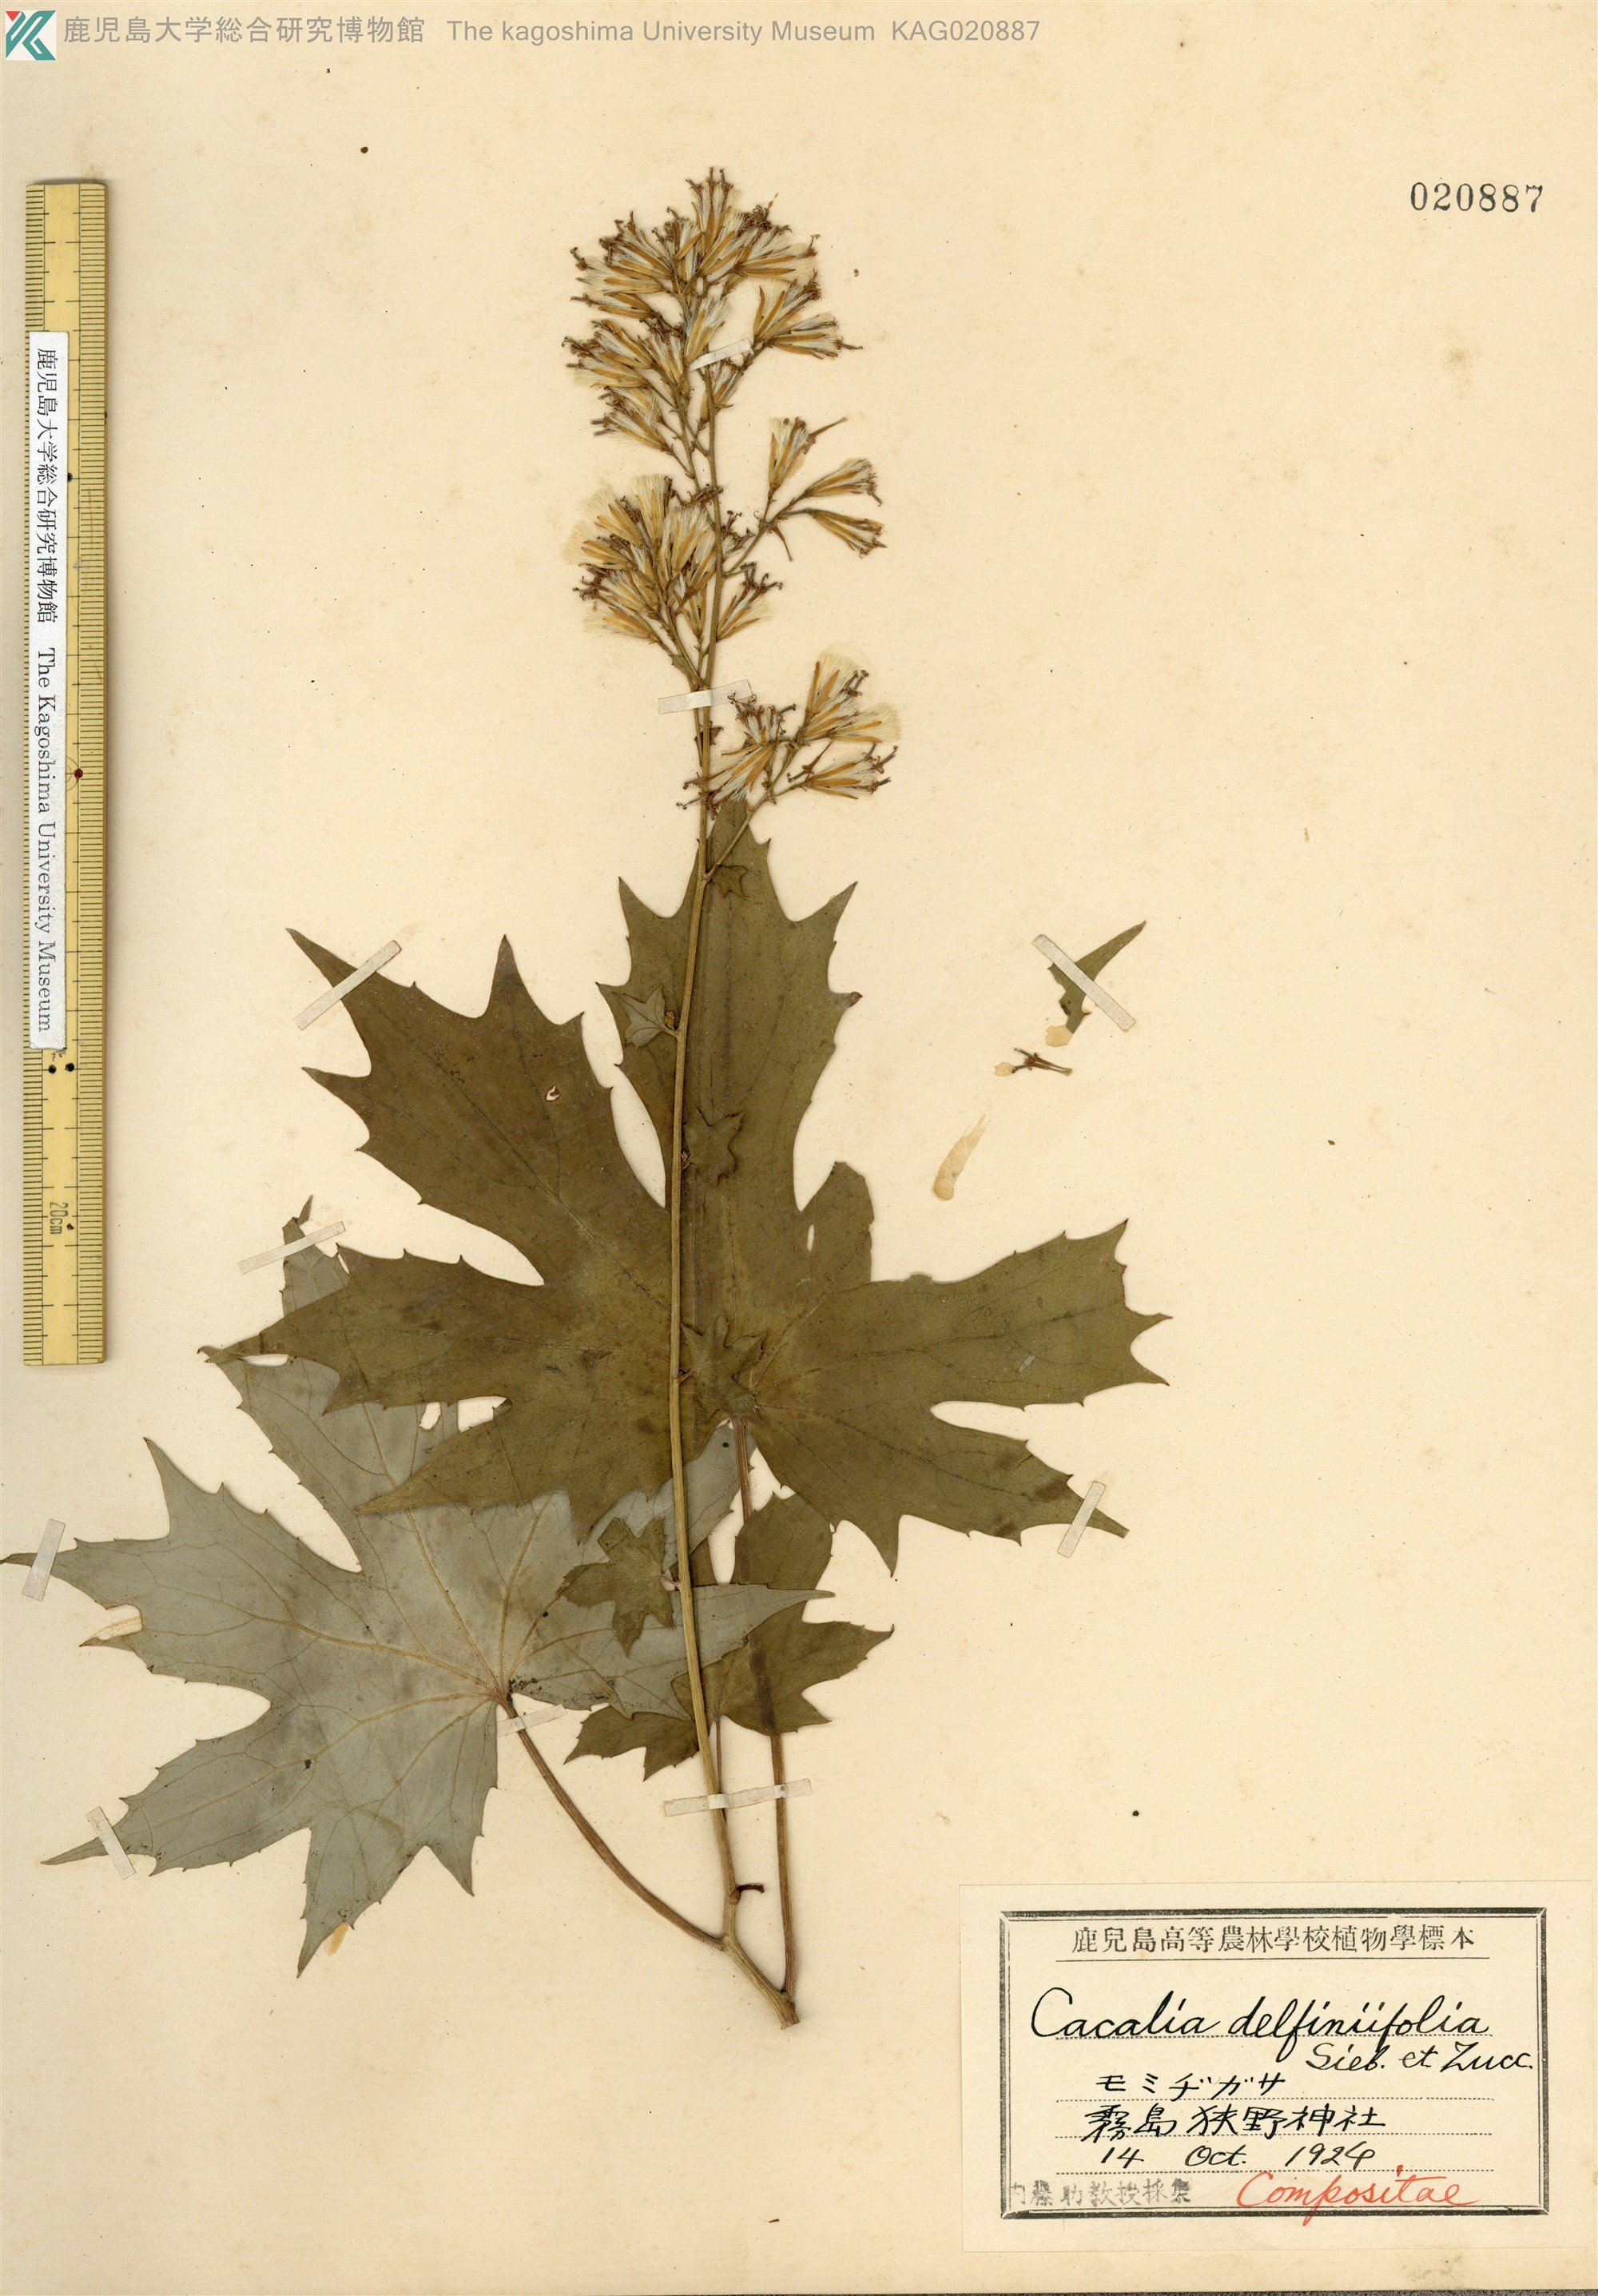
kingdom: Plantae
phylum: Tracheophyta
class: Magnoliopsida
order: Asterales
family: Asteraceae
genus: Japonicalia
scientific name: Japonicalia delphiniifolia
